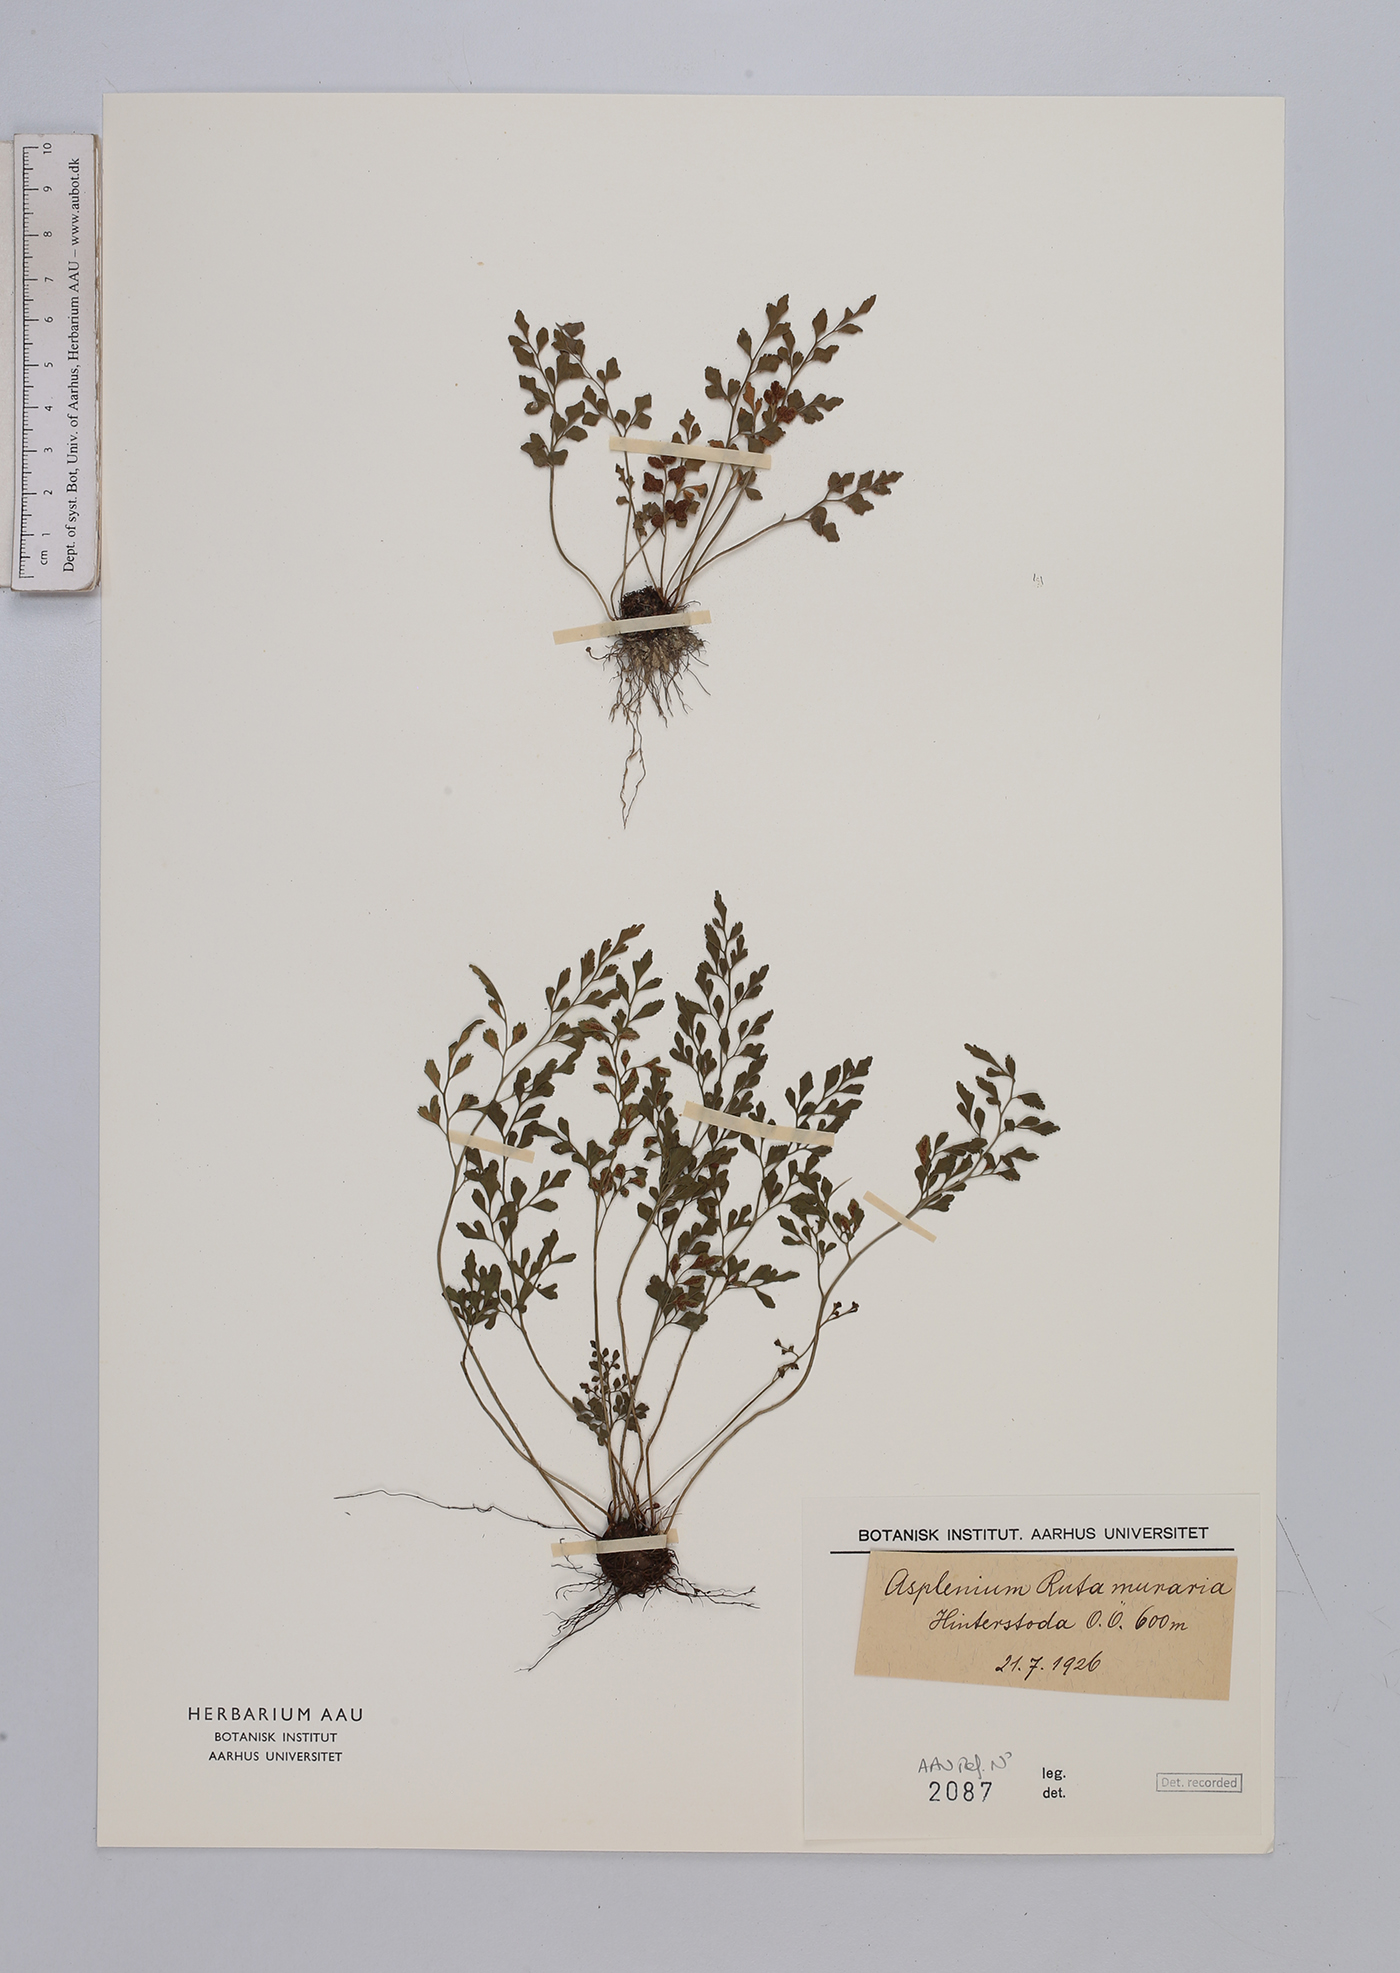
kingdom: Plantae
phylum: Tracheophyta
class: Polypodiopsida
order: Polypodiales
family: Aspleniaceae
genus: Asplenium
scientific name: Asplenium ruta-muraria
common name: Wall-rue
